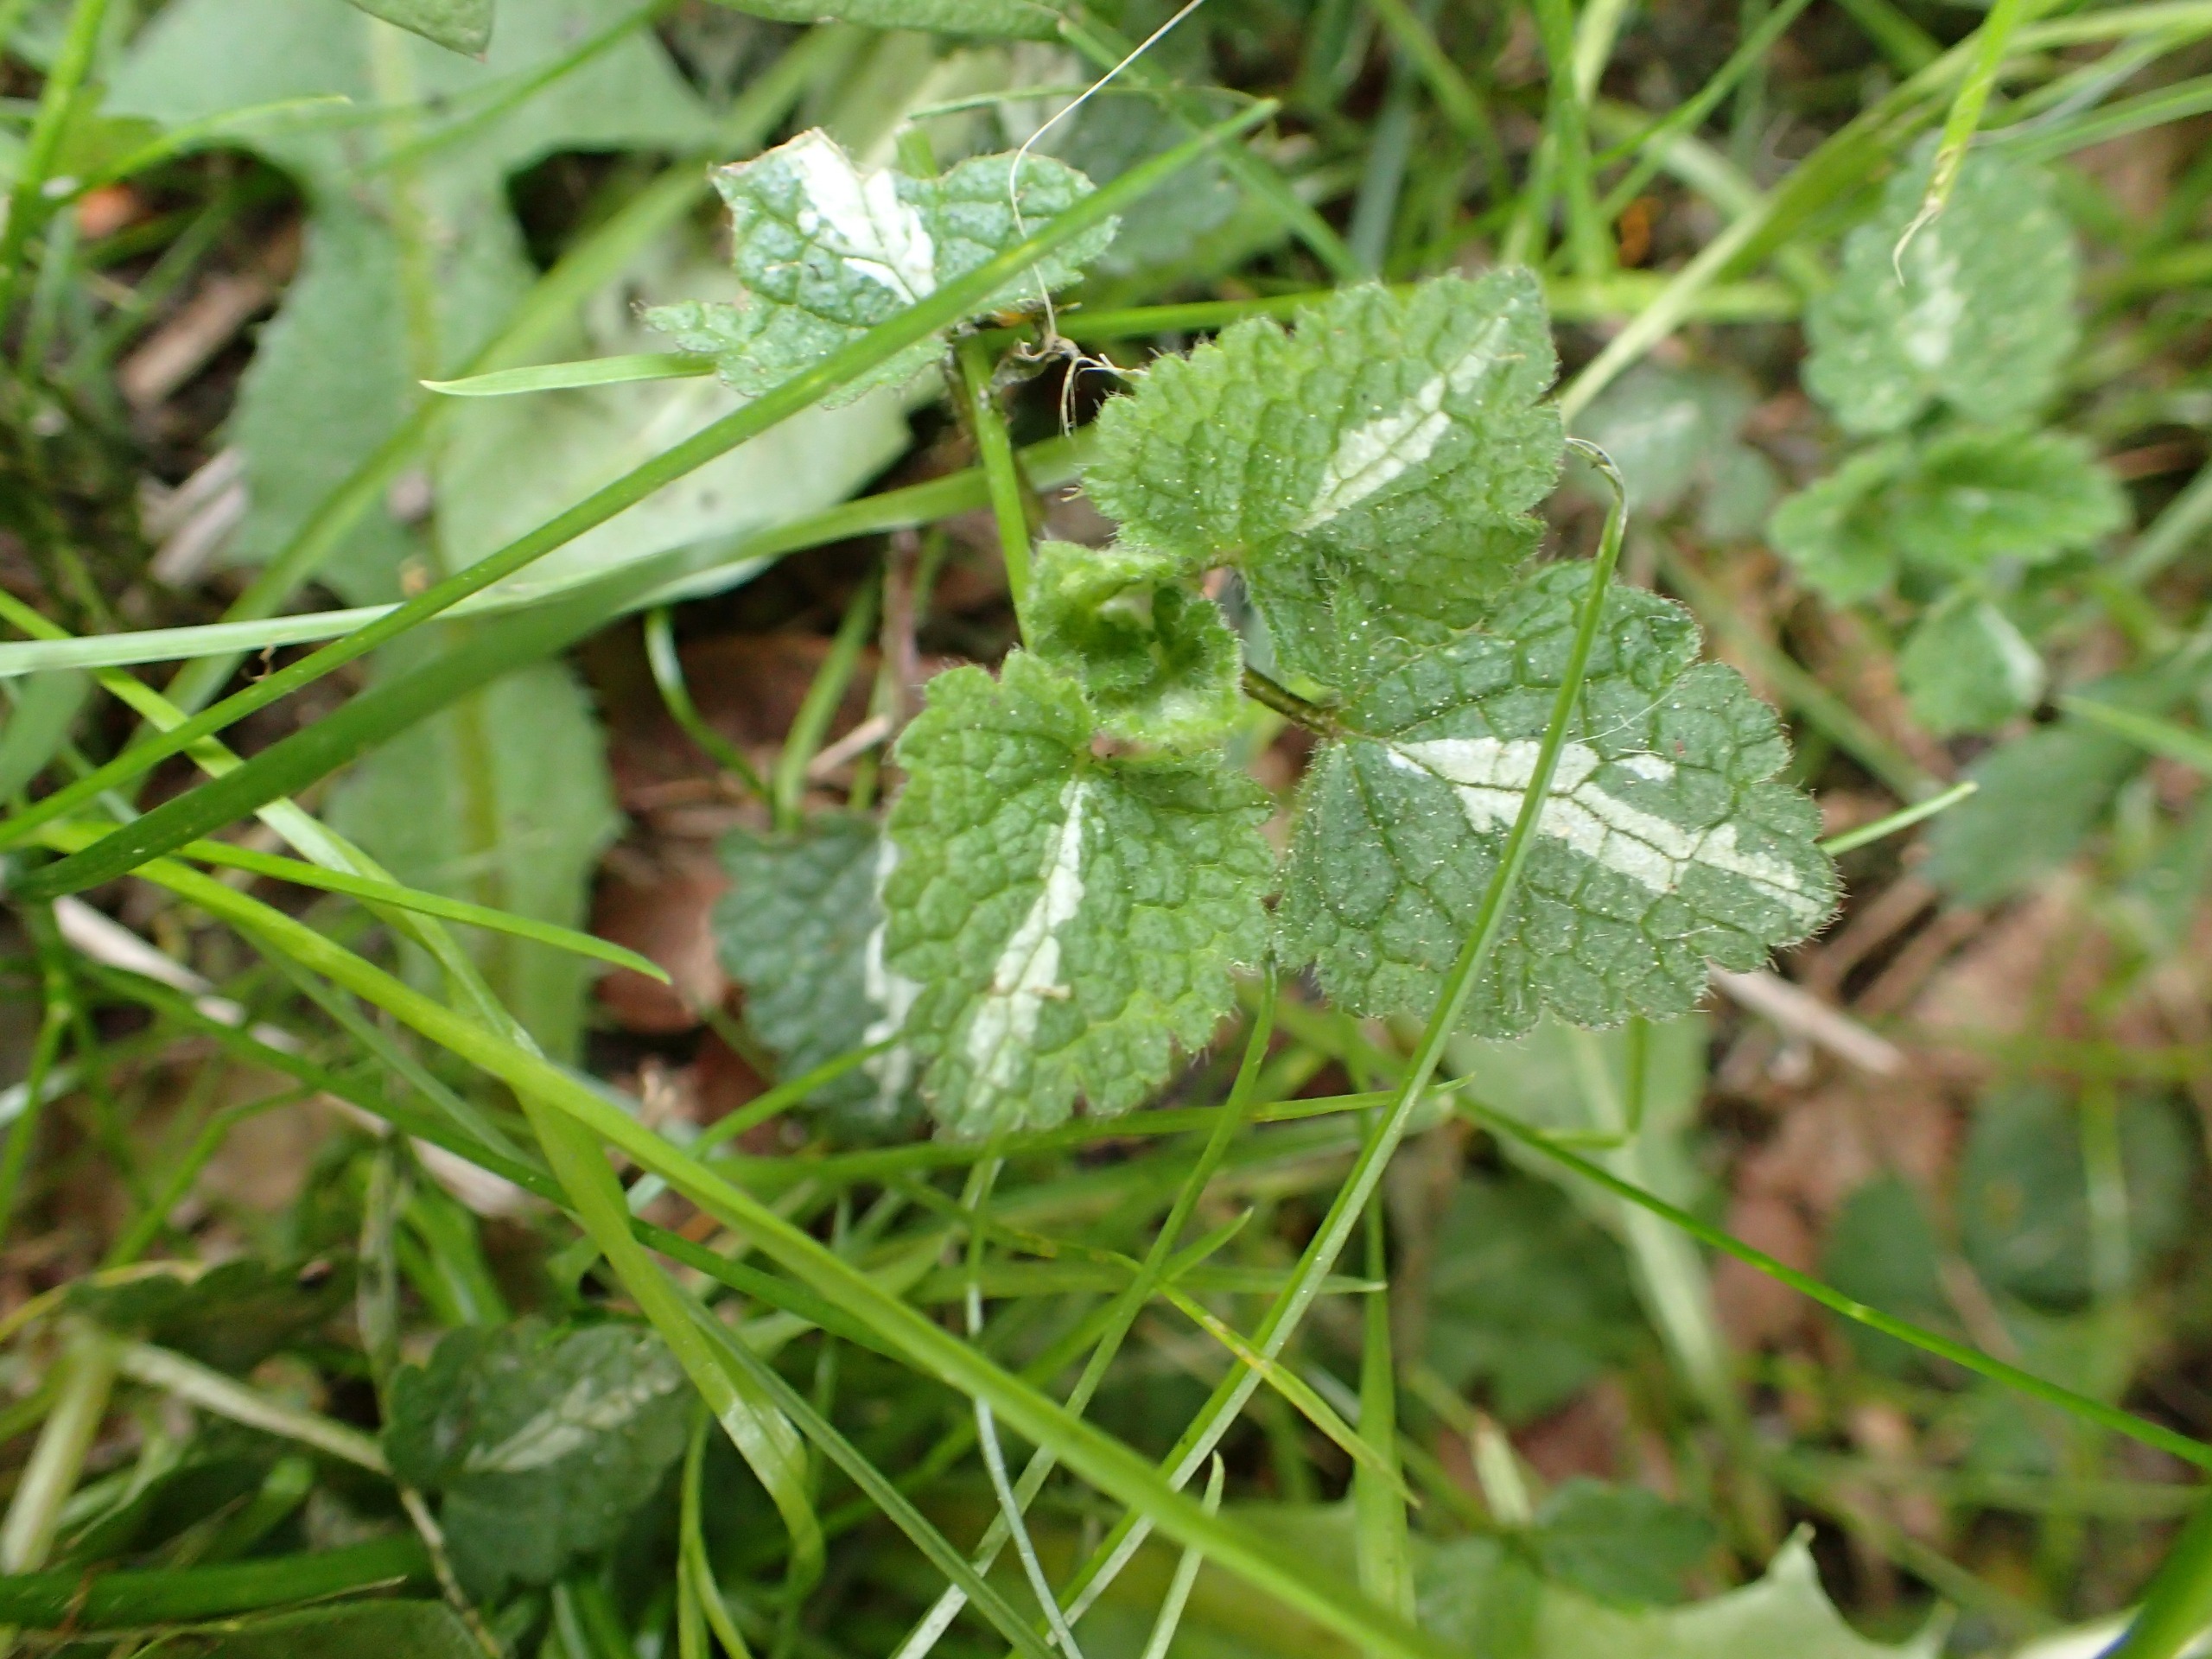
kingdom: Plantae
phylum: Tracheophyta
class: Magnoliopsida
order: Lamiales
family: Lamiaceae
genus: Lamium
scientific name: Lamium maculatum
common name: Plettet tvetand
